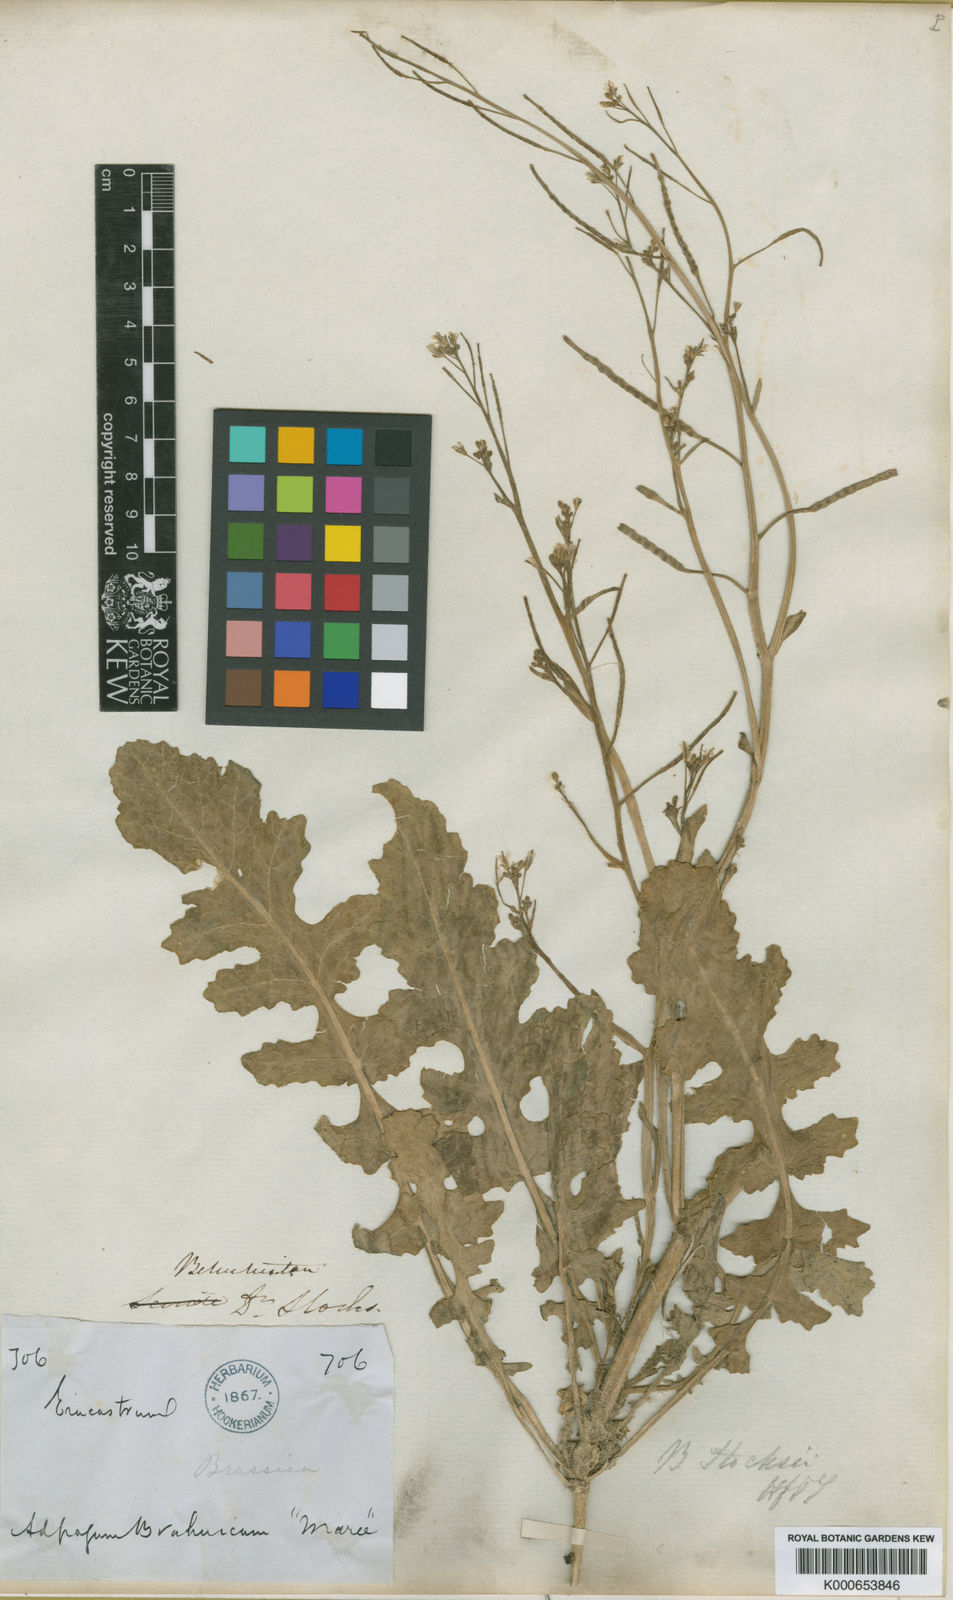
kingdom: Plantae
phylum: Tracheophyta
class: Magnoliopsida
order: Brassicales
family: Brassicaceae
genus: Brassica
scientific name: Brassica tournefortii
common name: Pale cabbage
